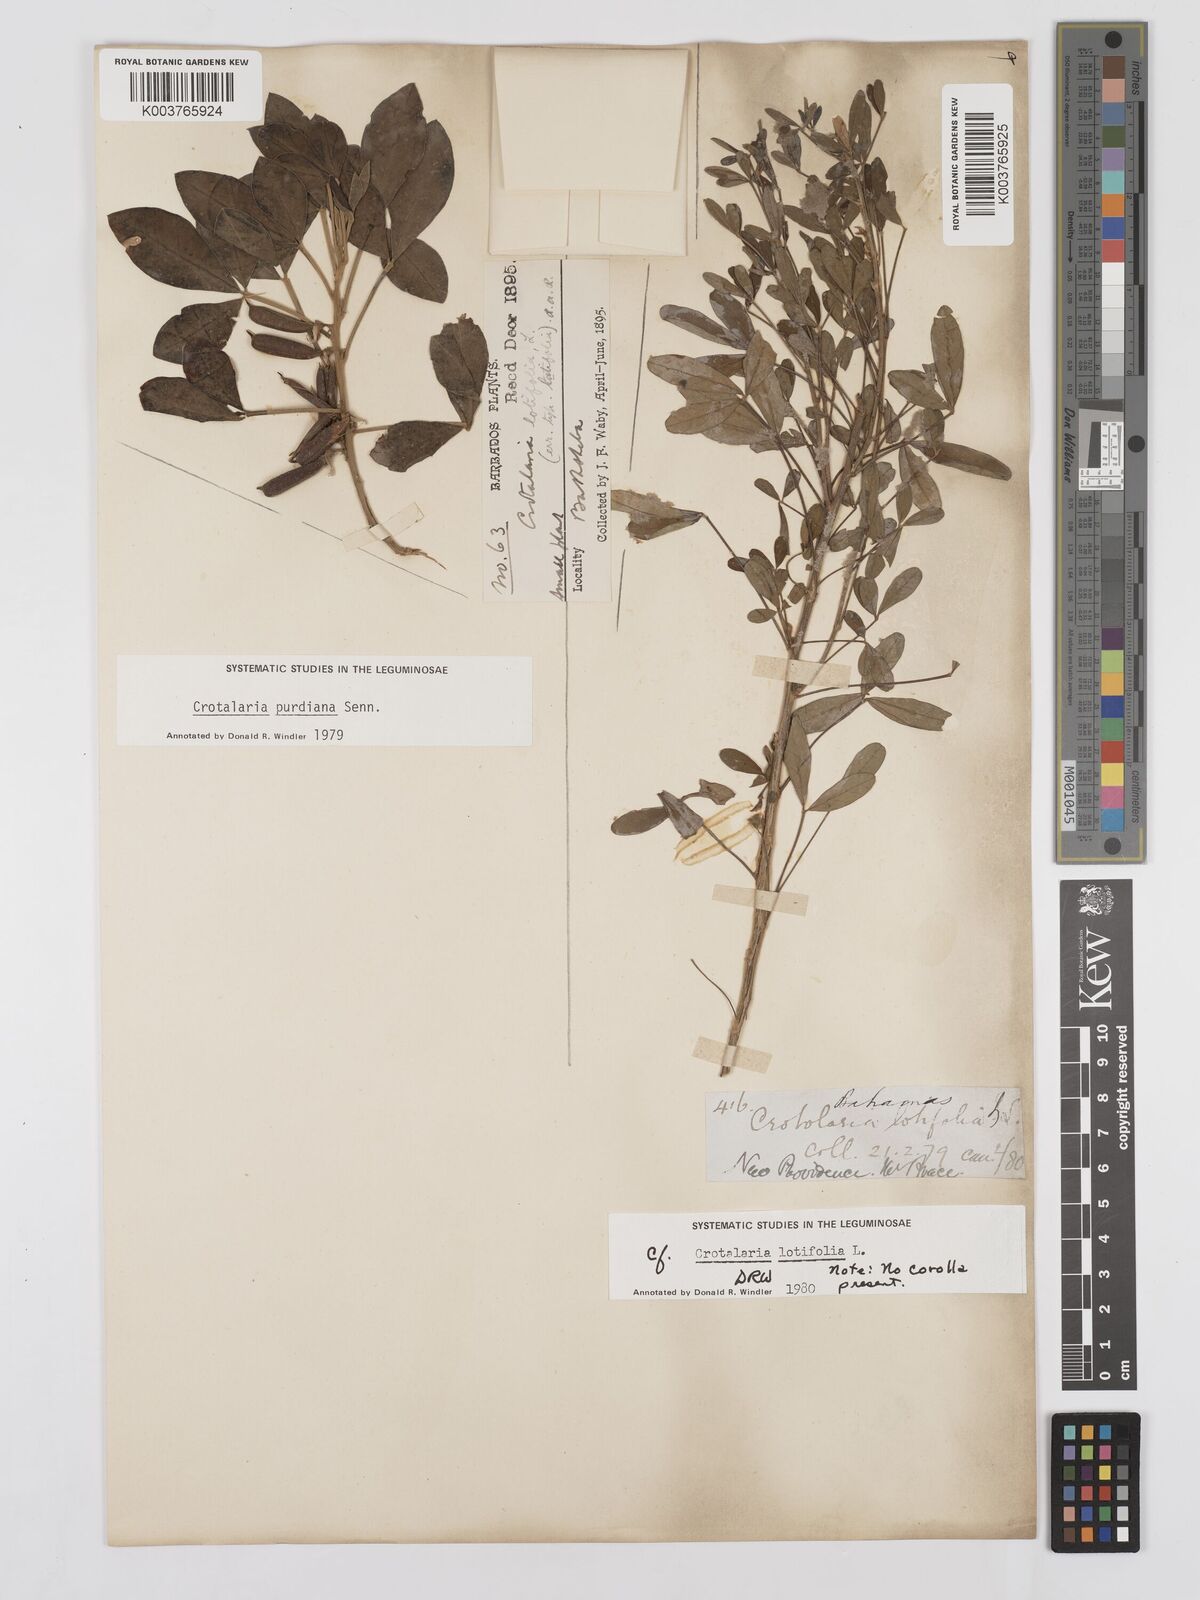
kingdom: Plantae
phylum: Tracheophyta
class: Magnoliopsida
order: Fabales
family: Fabaceae
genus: Crotalaria
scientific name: Crotalaria purdieana
